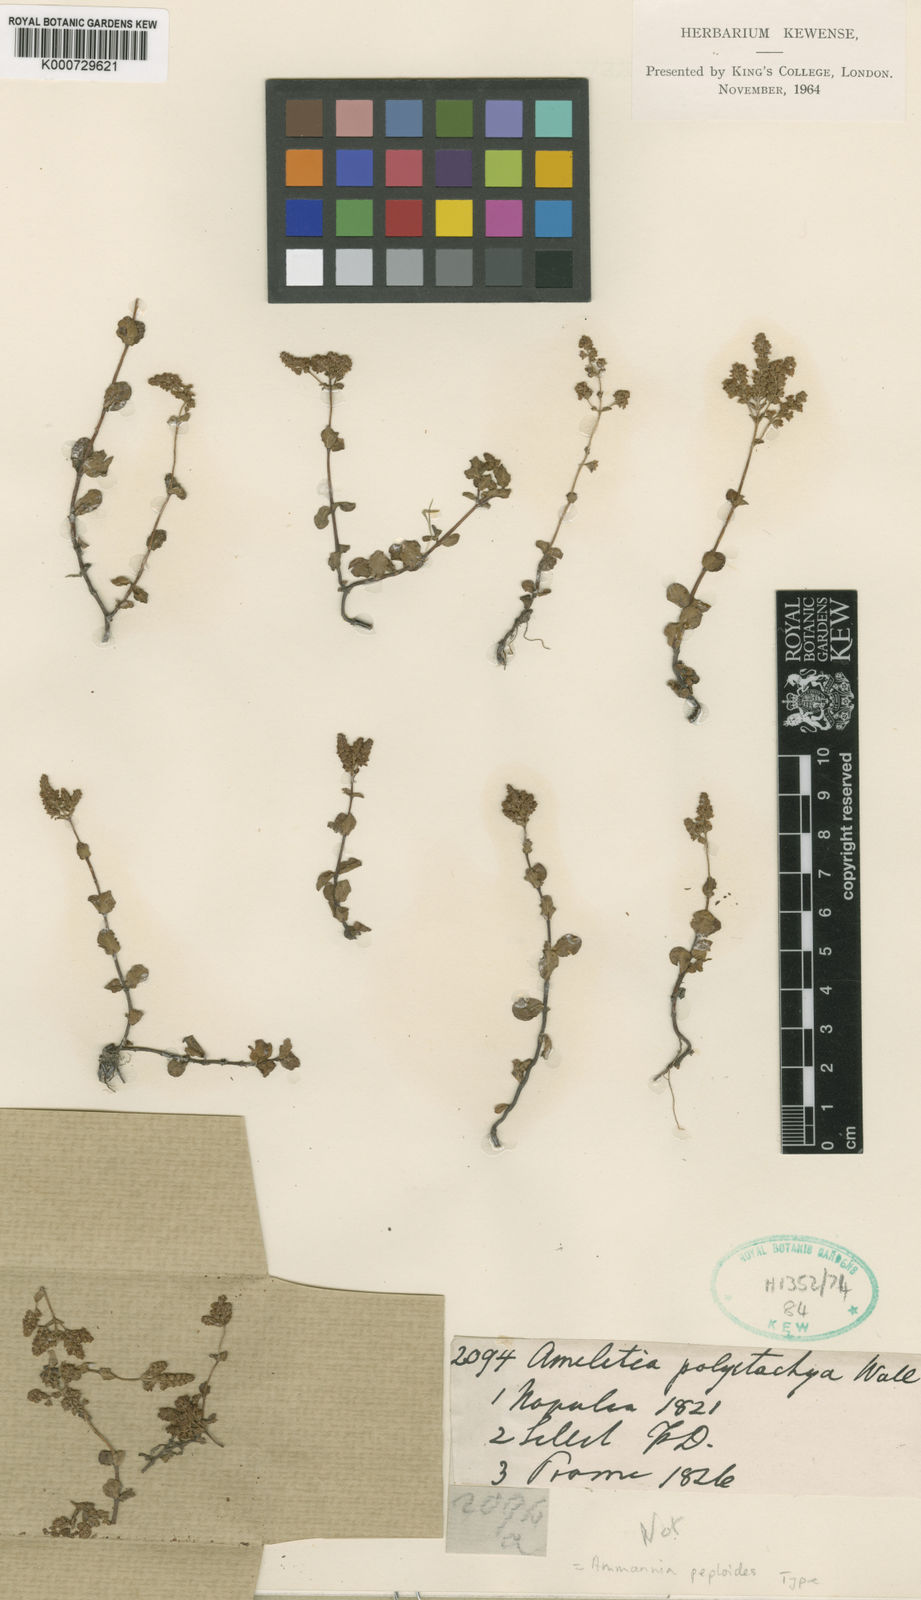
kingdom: Plantae
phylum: Tracheophyta
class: Magnoliopsida
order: Myrtales
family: Lythraceae
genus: Rotala
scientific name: Rotala indica
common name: Indian toothcup
